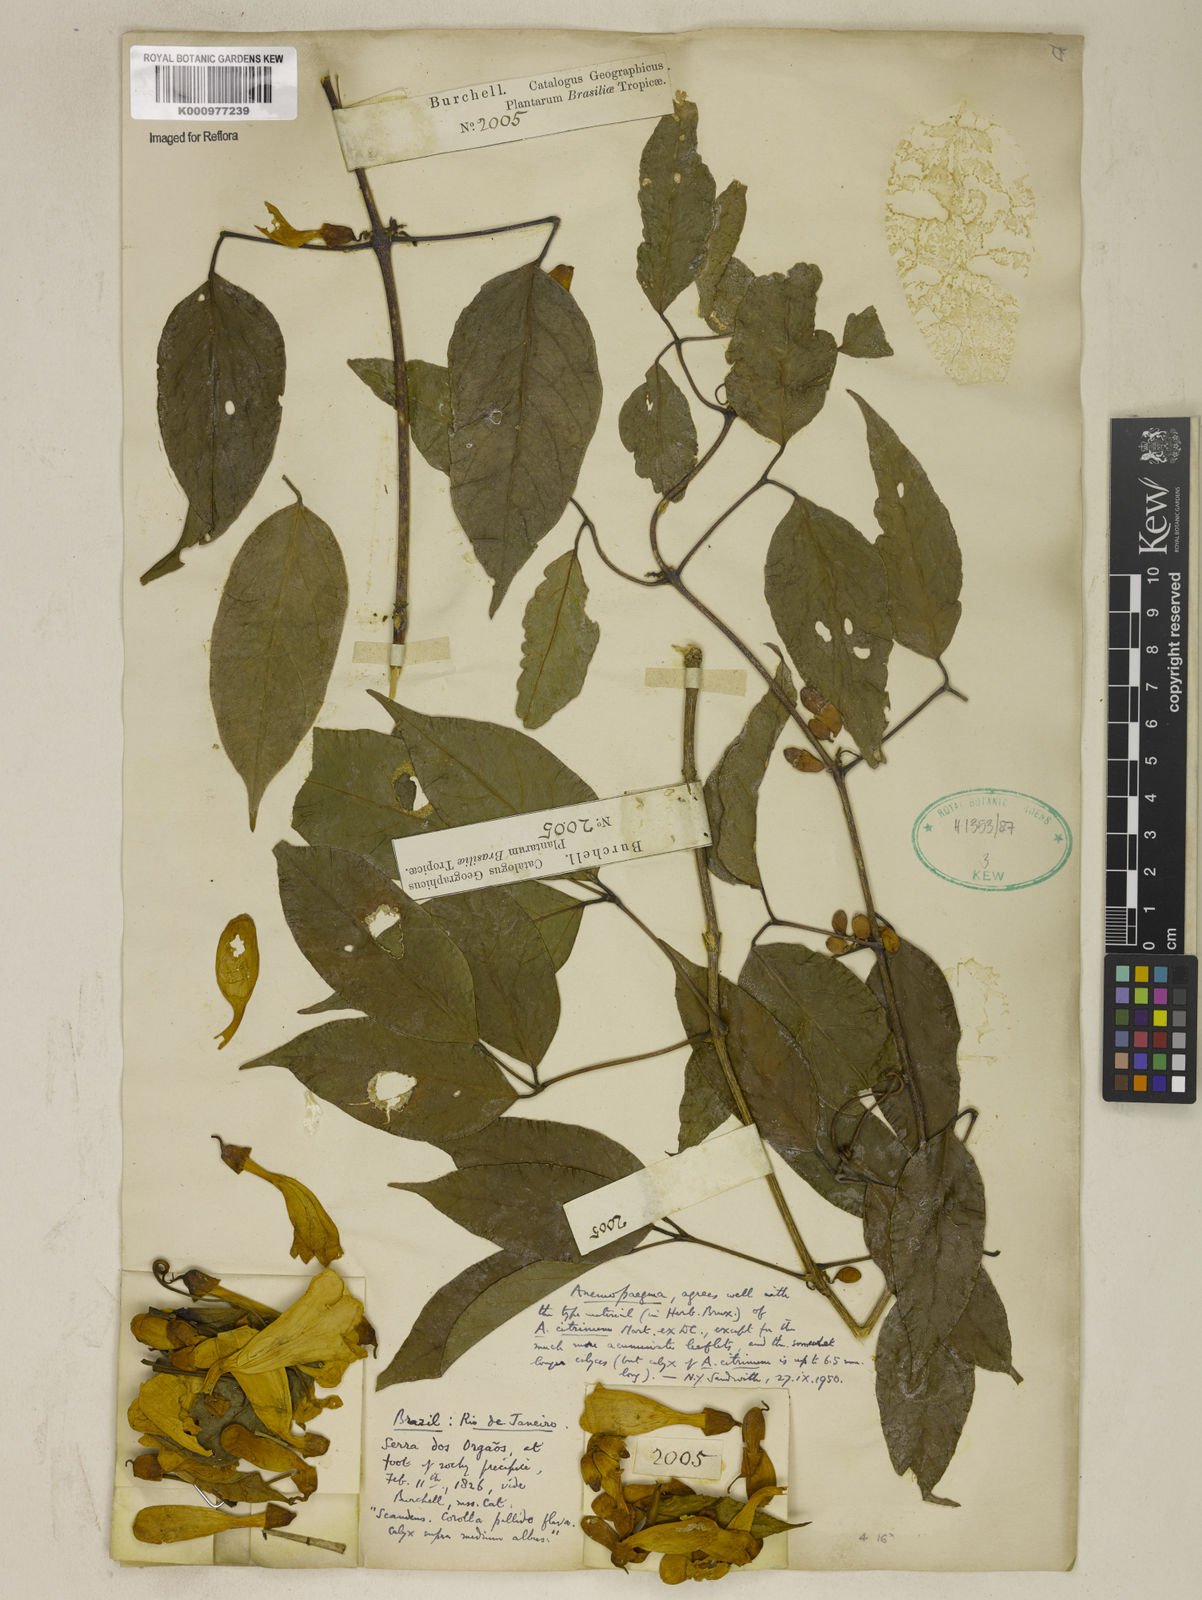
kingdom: Plantae
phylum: Tracheophyta
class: Magnoliopsida
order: Lamiales
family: Bignoniaceae
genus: Anemopaegma
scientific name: Anemopaegma citrinum
